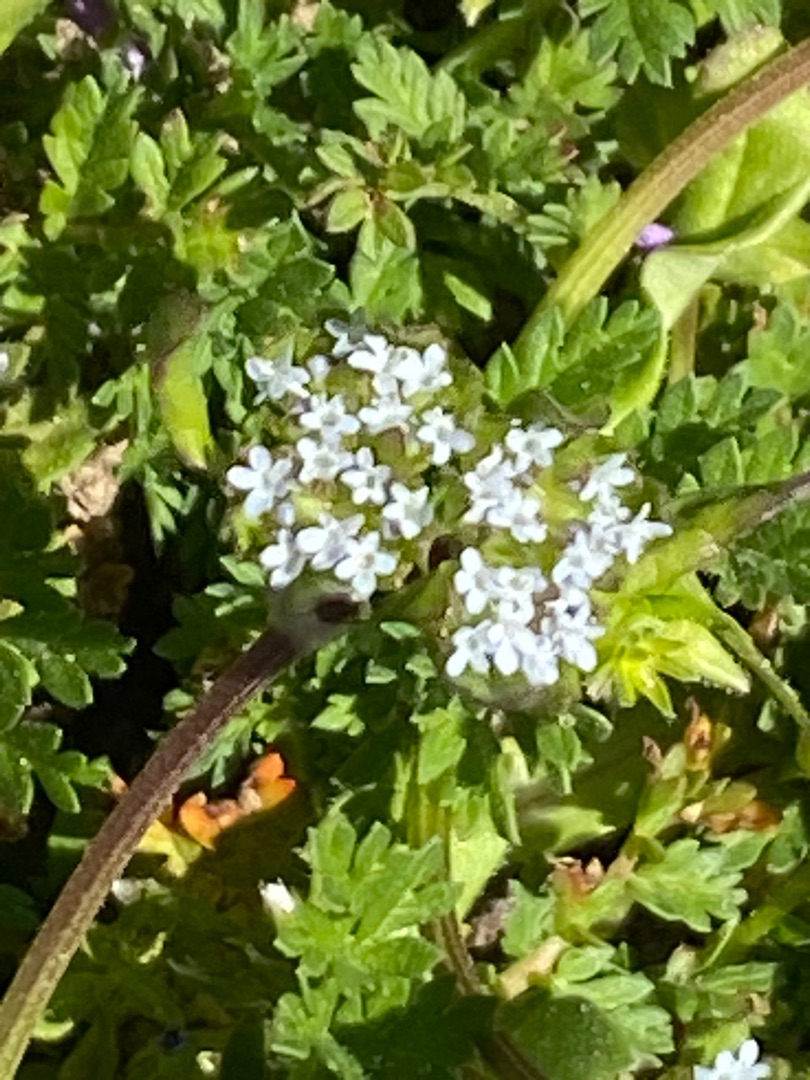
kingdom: Plantae
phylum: Tracheophyta
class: Magnoliopsida
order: Dipsacales
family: Caprifoliaceae
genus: Valerianella
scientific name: Valerianella locusta
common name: Tandfri vårsalat
